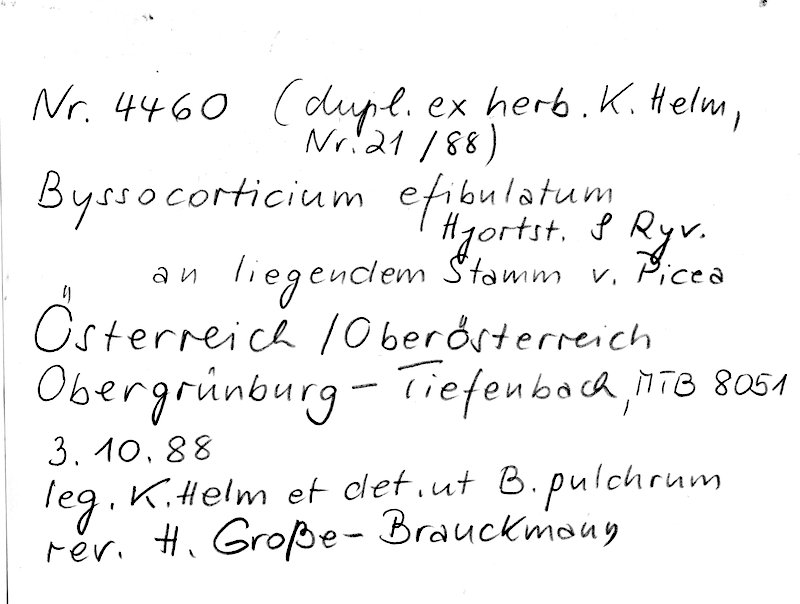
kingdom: Plantae
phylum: Tracheophyta
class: Pinopsida
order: Pinales
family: Pinaceae
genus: Picea
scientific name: Picea
